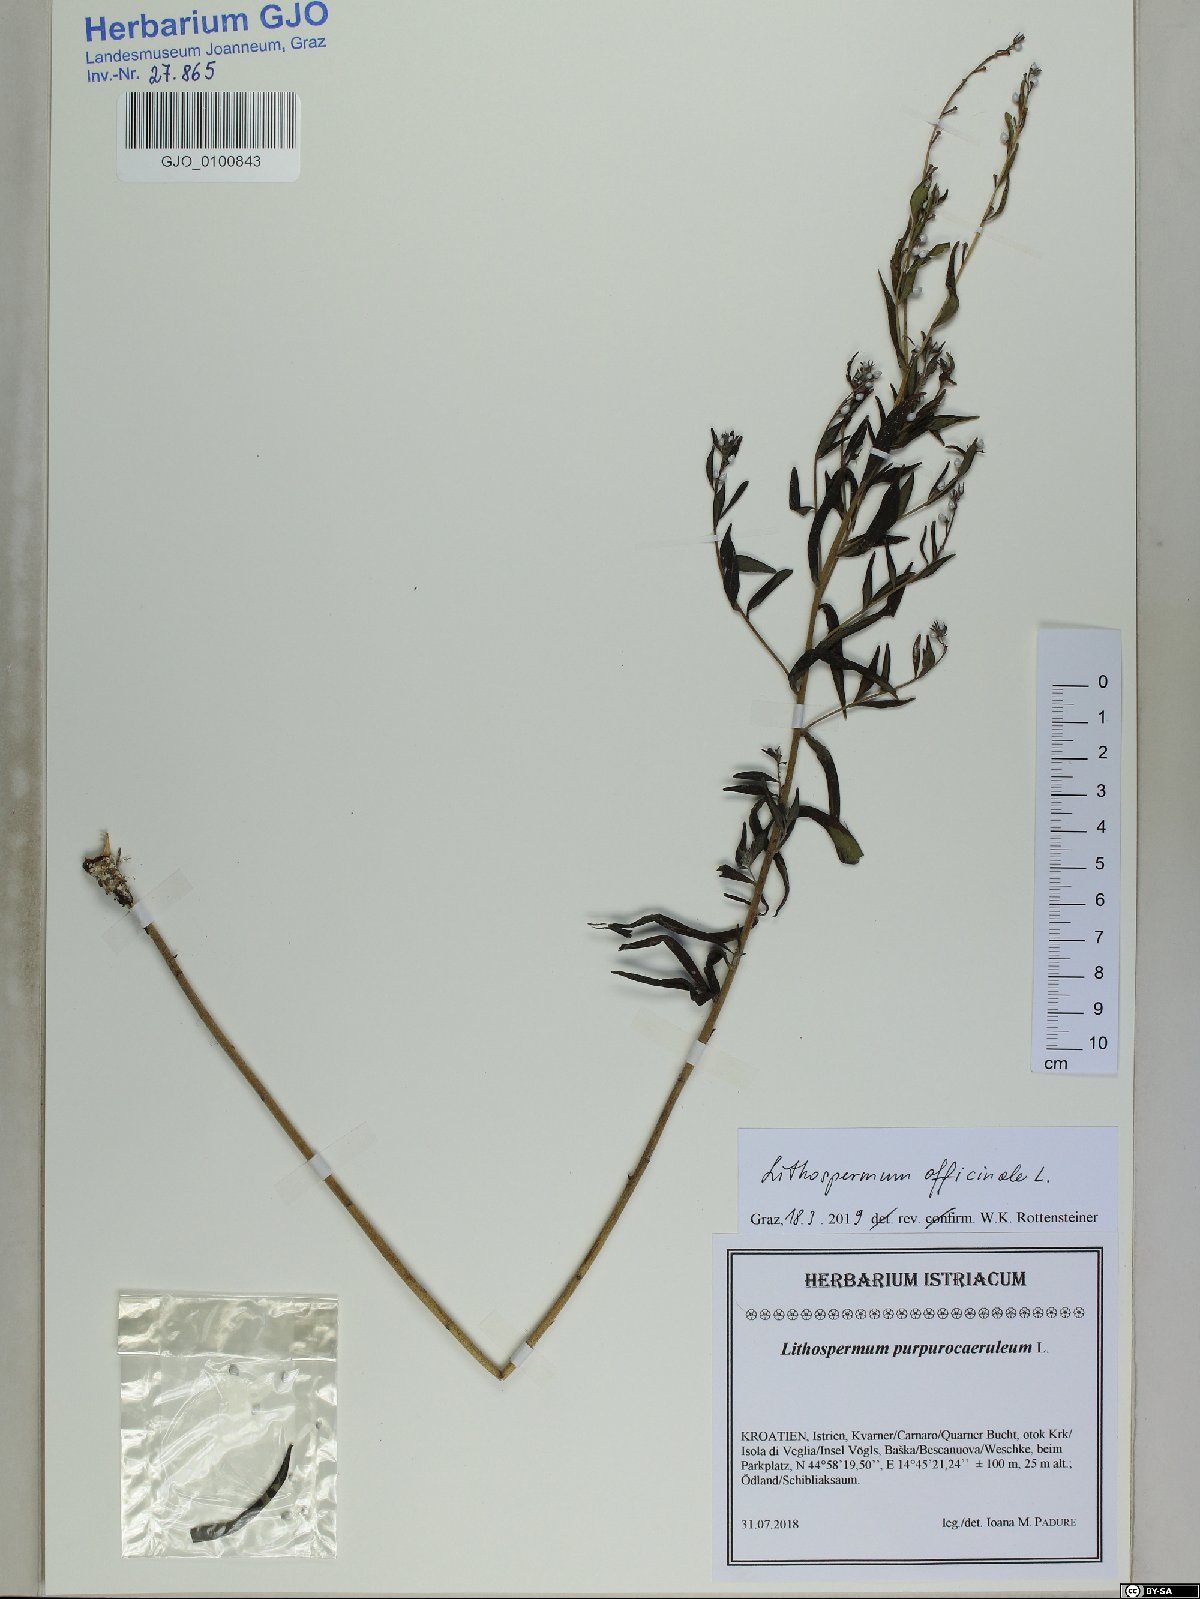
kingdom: Plantae
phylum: Tracheophyta
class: Magnoliopsida
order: Boraginales
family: Boraginaceae
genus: Lithospermum
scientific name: Lithospermum officinale
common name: Common gromwell
